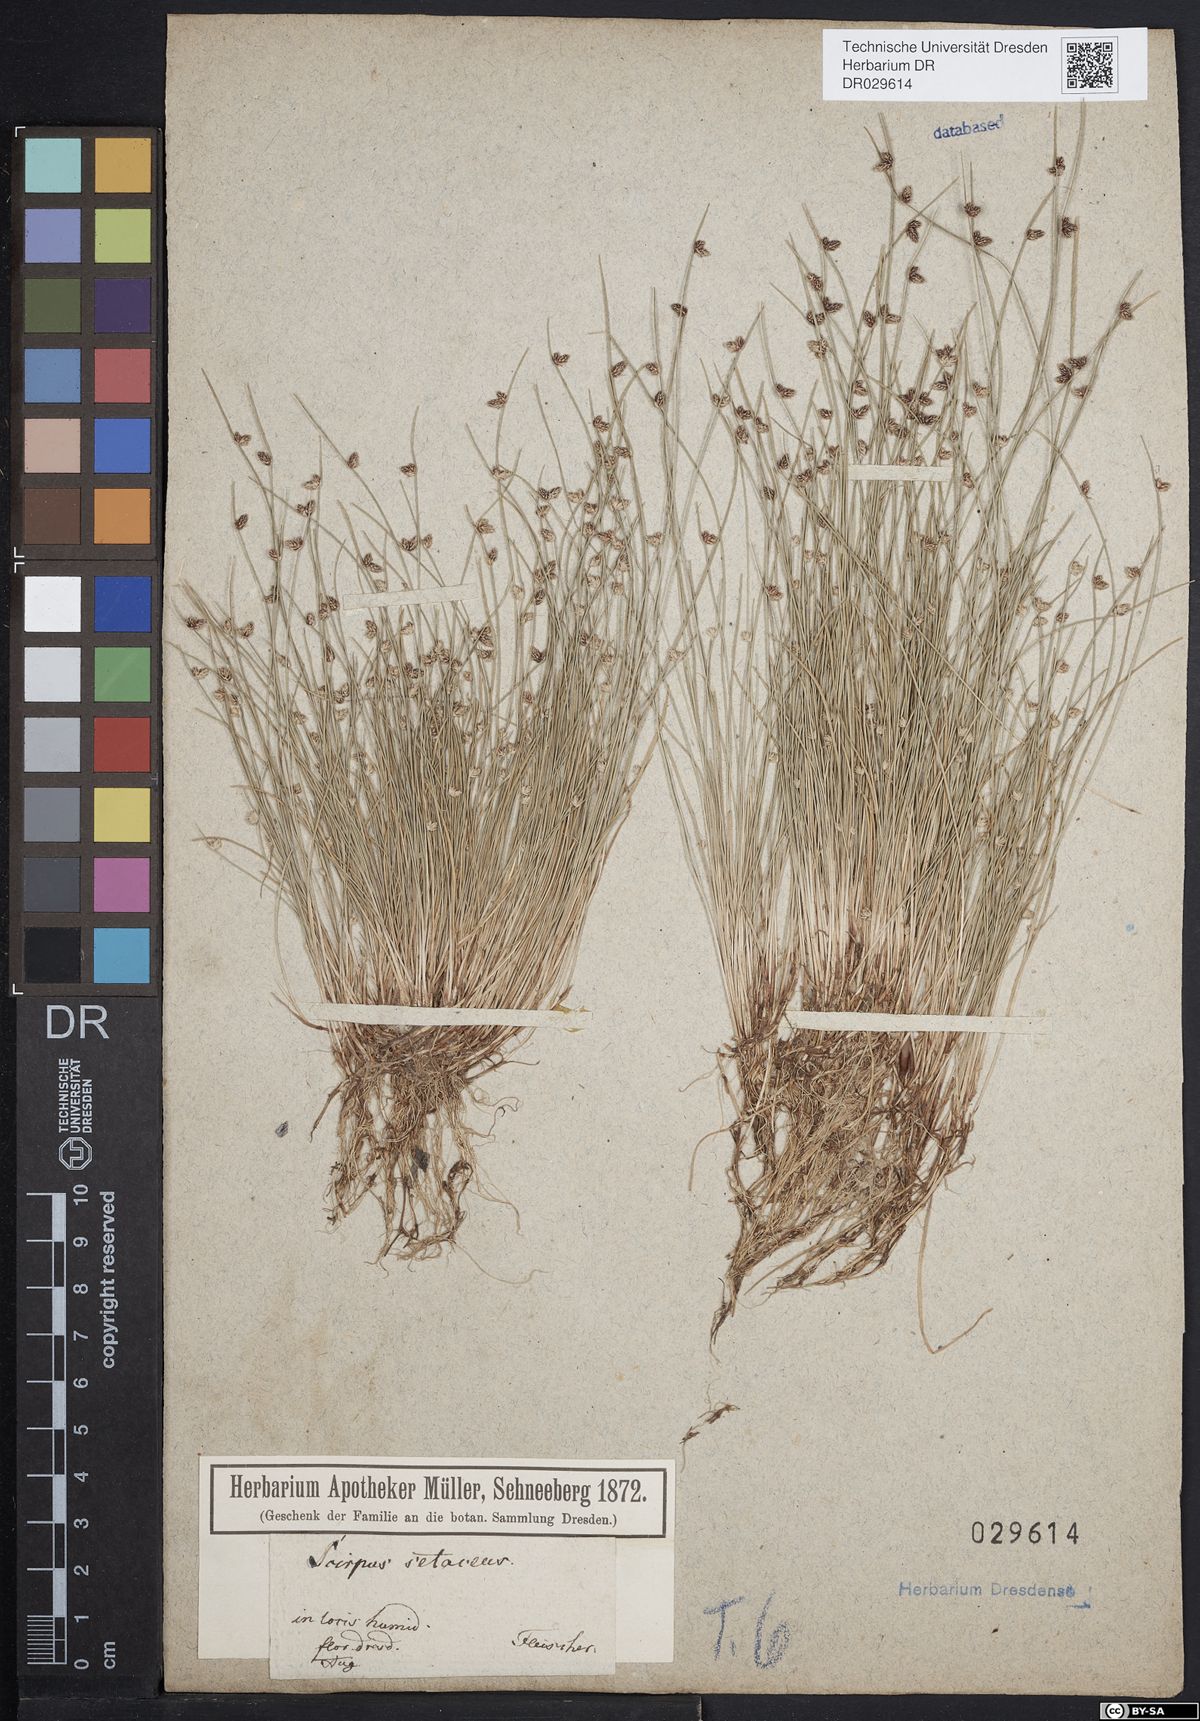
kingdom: Plantae
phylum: Tracheophyta
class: Liliopsida
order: Poales
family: Cyperaceae
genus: Isolepis
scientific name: Isolepis setacea
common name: Bristle club-rush
